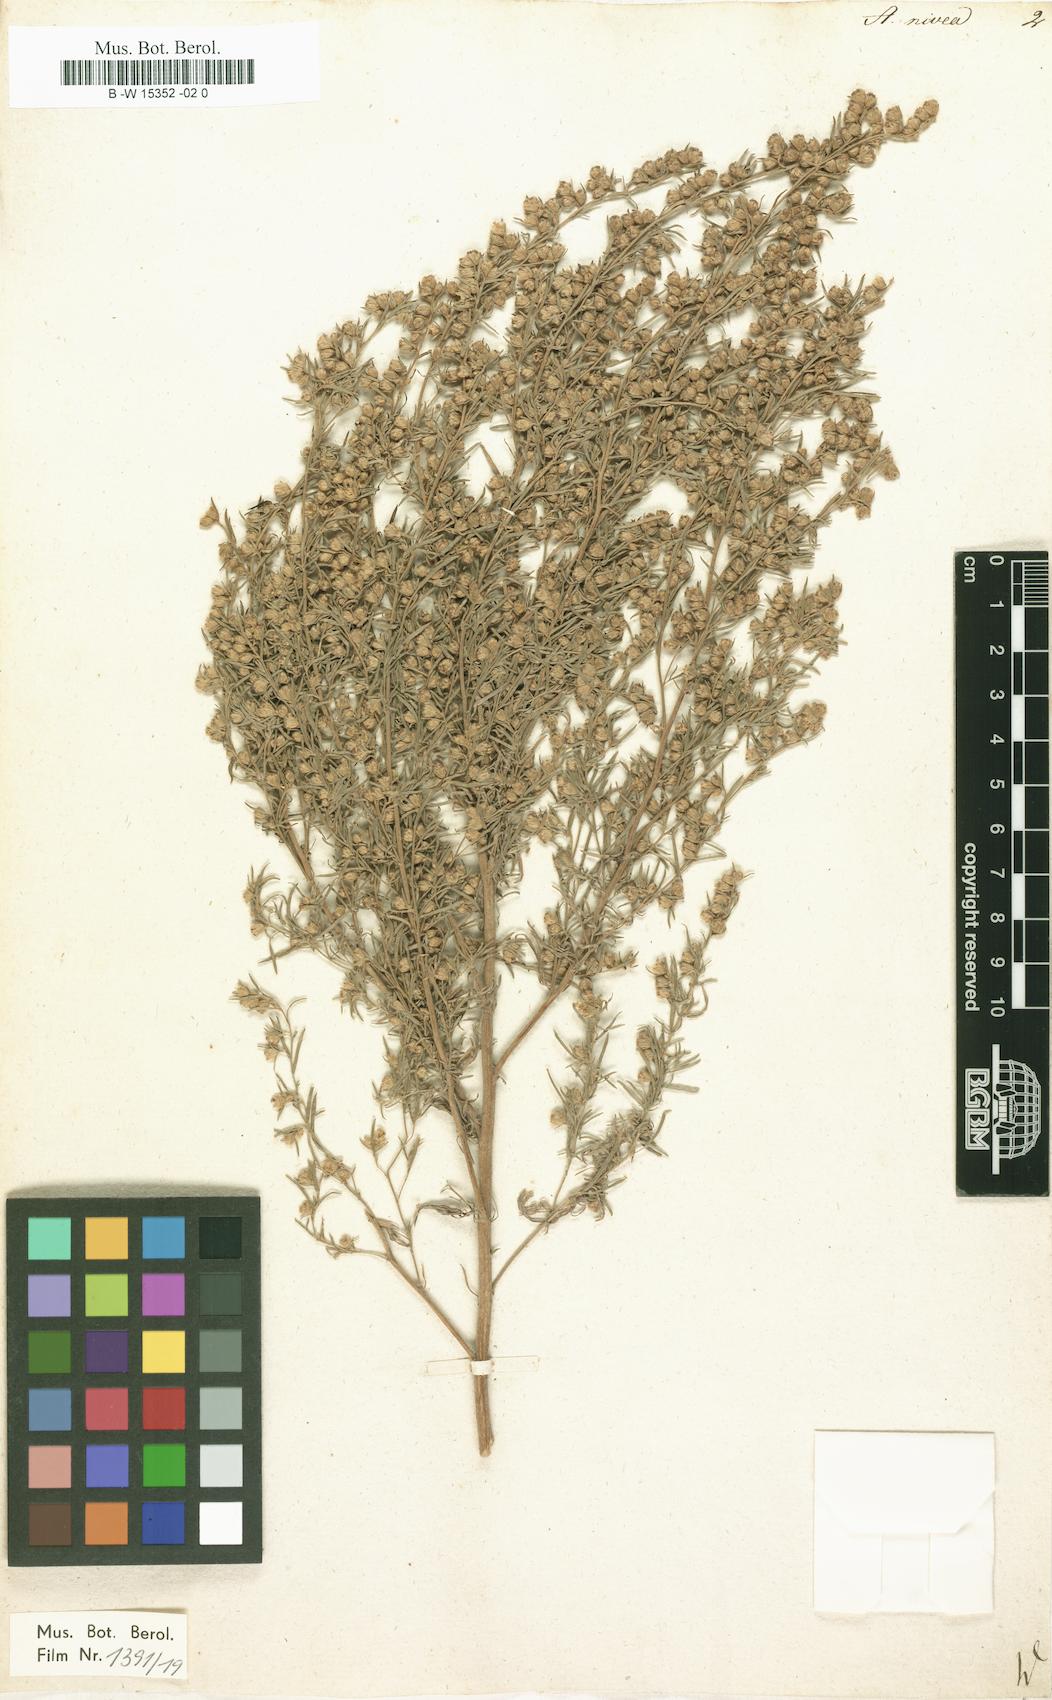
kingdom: Plantae
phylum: Tracheophyta
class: Magnoliopsida
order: Asterales
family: Asteraceae
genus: Artemisia
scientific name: Artemisia austriaca
